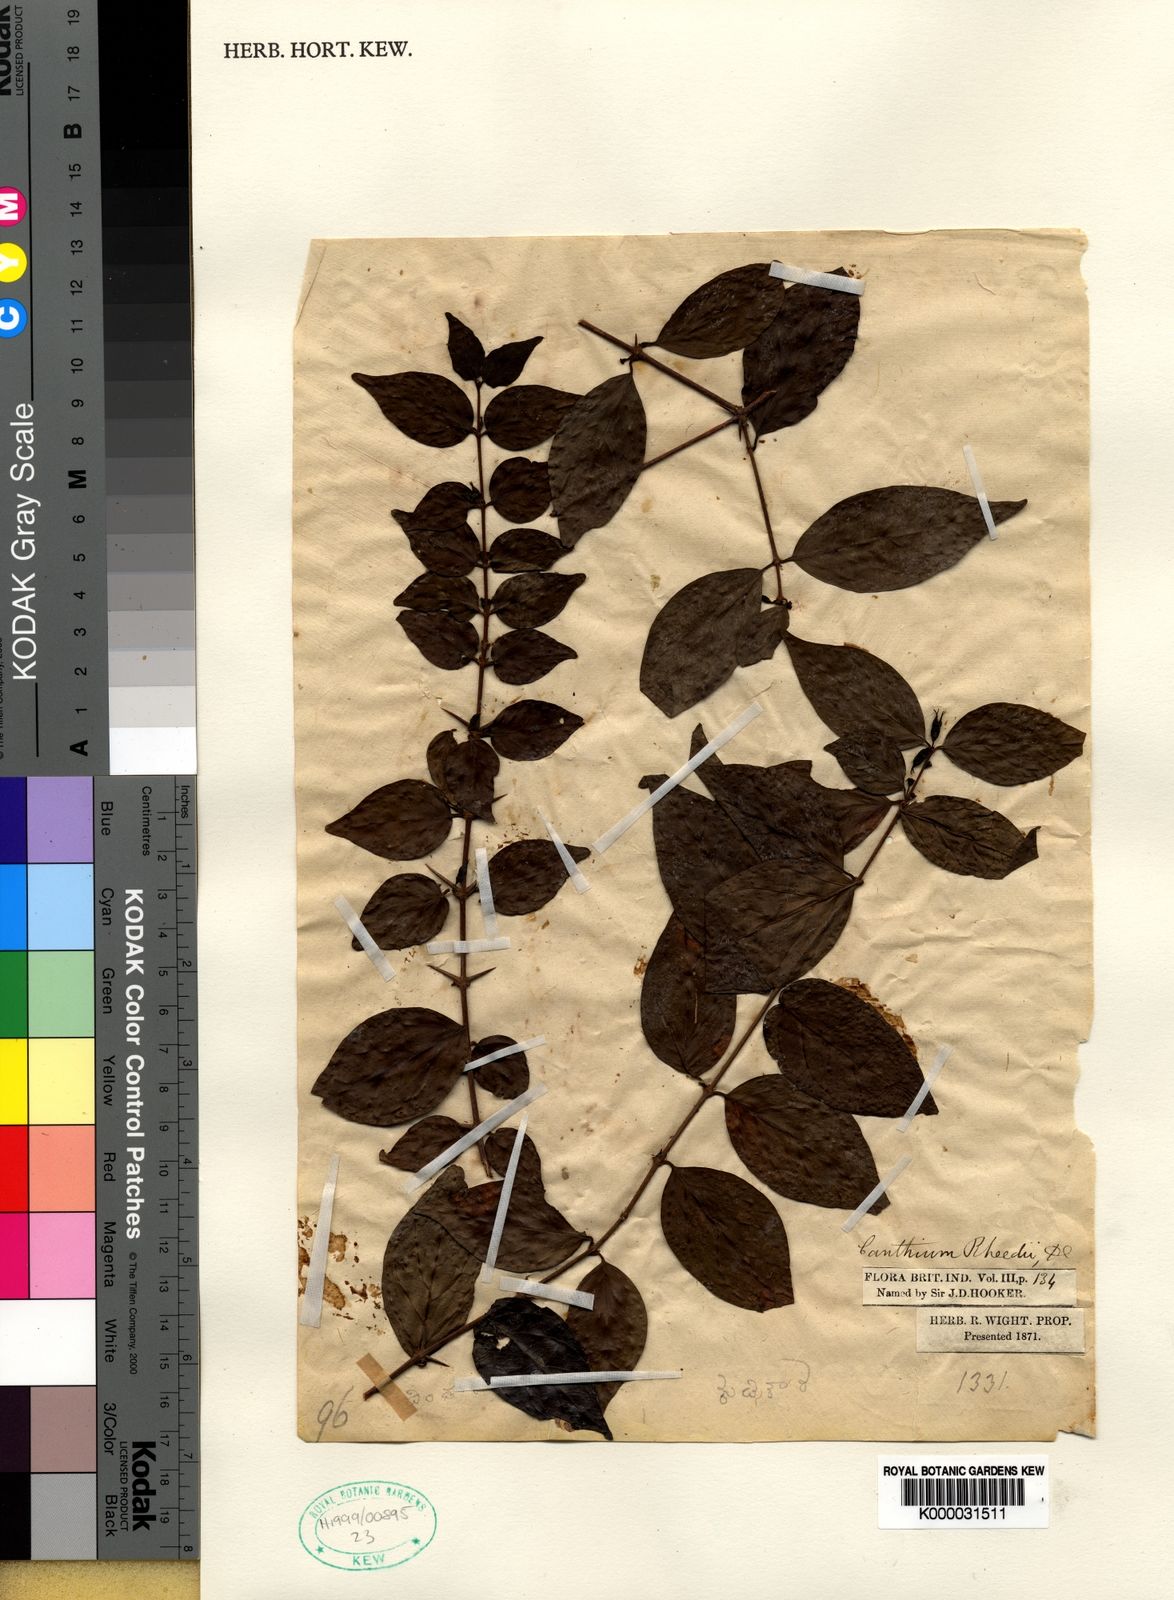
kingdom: Plantae
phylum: Tracheophyta
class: Magnoliopsida
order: Gentianales
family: Rubiaceae
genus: Canthium
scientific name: Canthium rheedei
